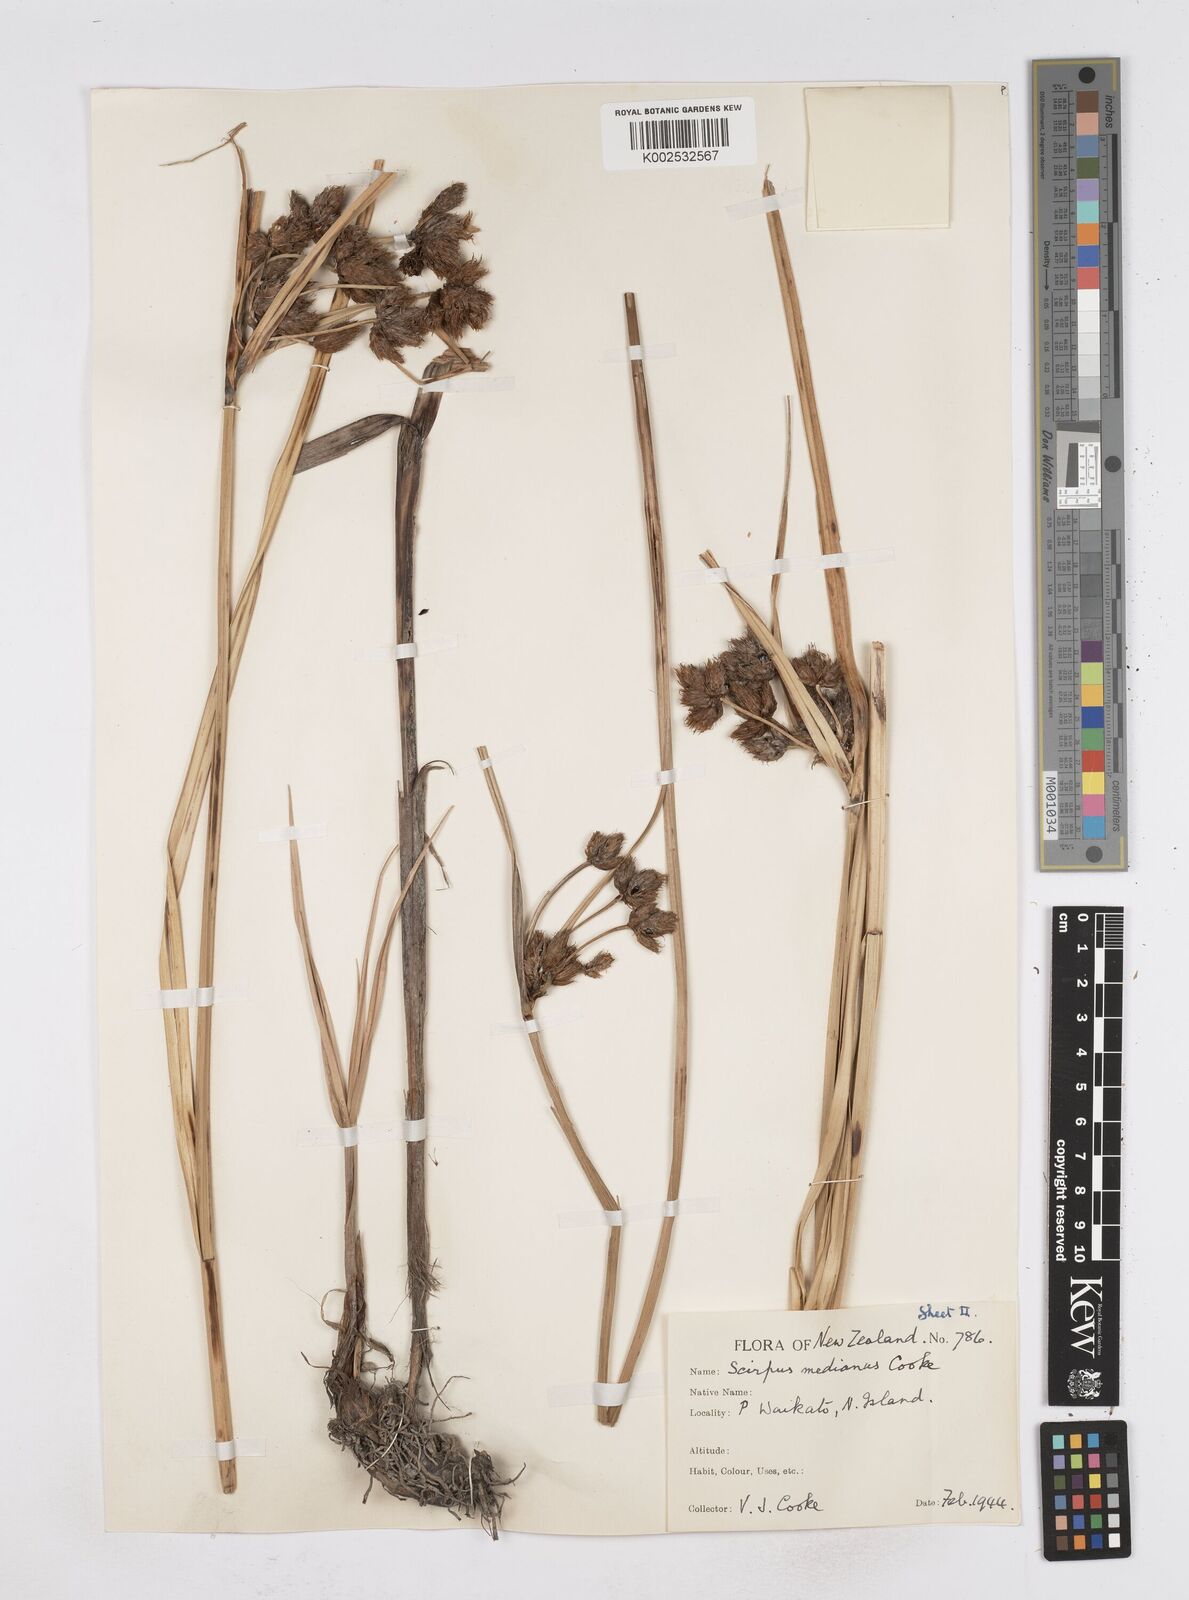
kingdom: Plantae
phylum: Tracheophyta
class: Liliopsida
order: Poales
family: Cyperaceae
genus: Bolboschoenus
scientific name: Bolboschoenus medianus
